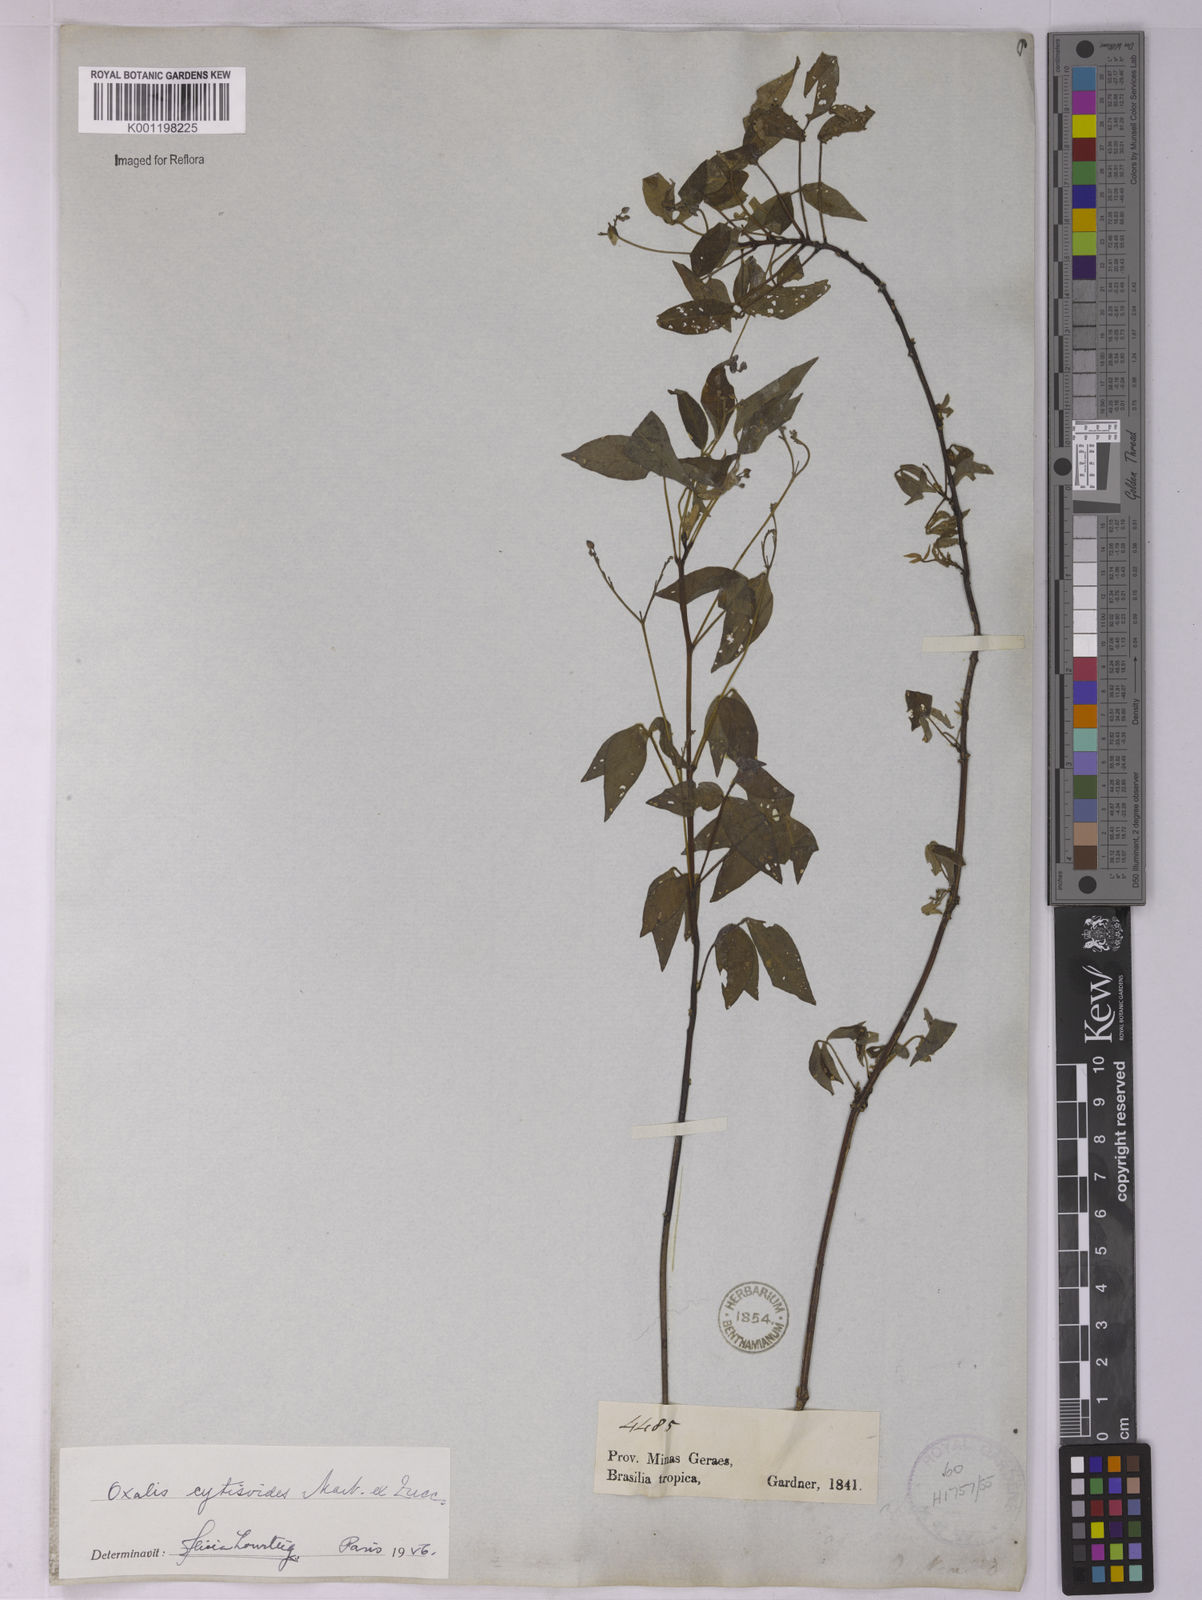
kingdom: Plantae
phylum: Tracheophyta
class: Magnoliopsida
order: Oxalidales
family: Oxalidaceae
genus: Oxalis
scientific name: Oxalis cytisoides
